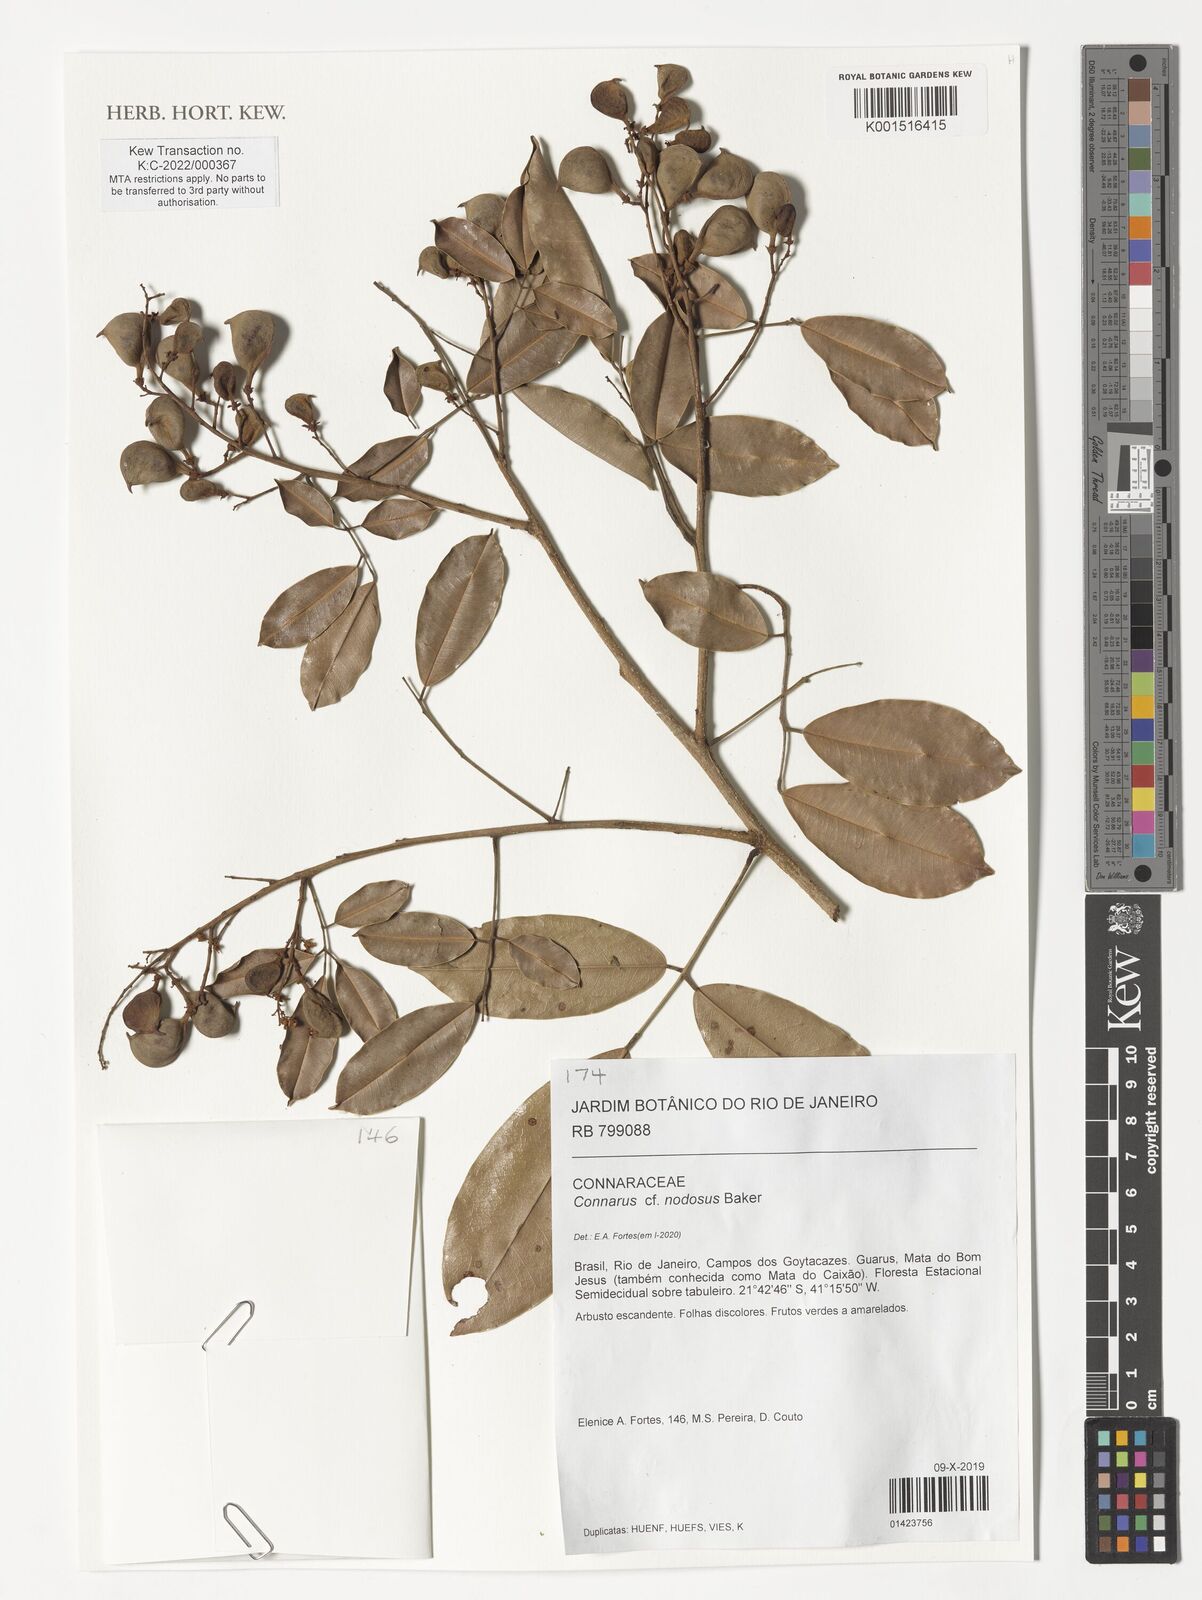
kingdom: Plantae
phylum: Tracheophyta
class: Magnoliopsida
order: Oxalidales
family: Connaraceae
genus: Connarus
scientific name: Connarus nodosus
